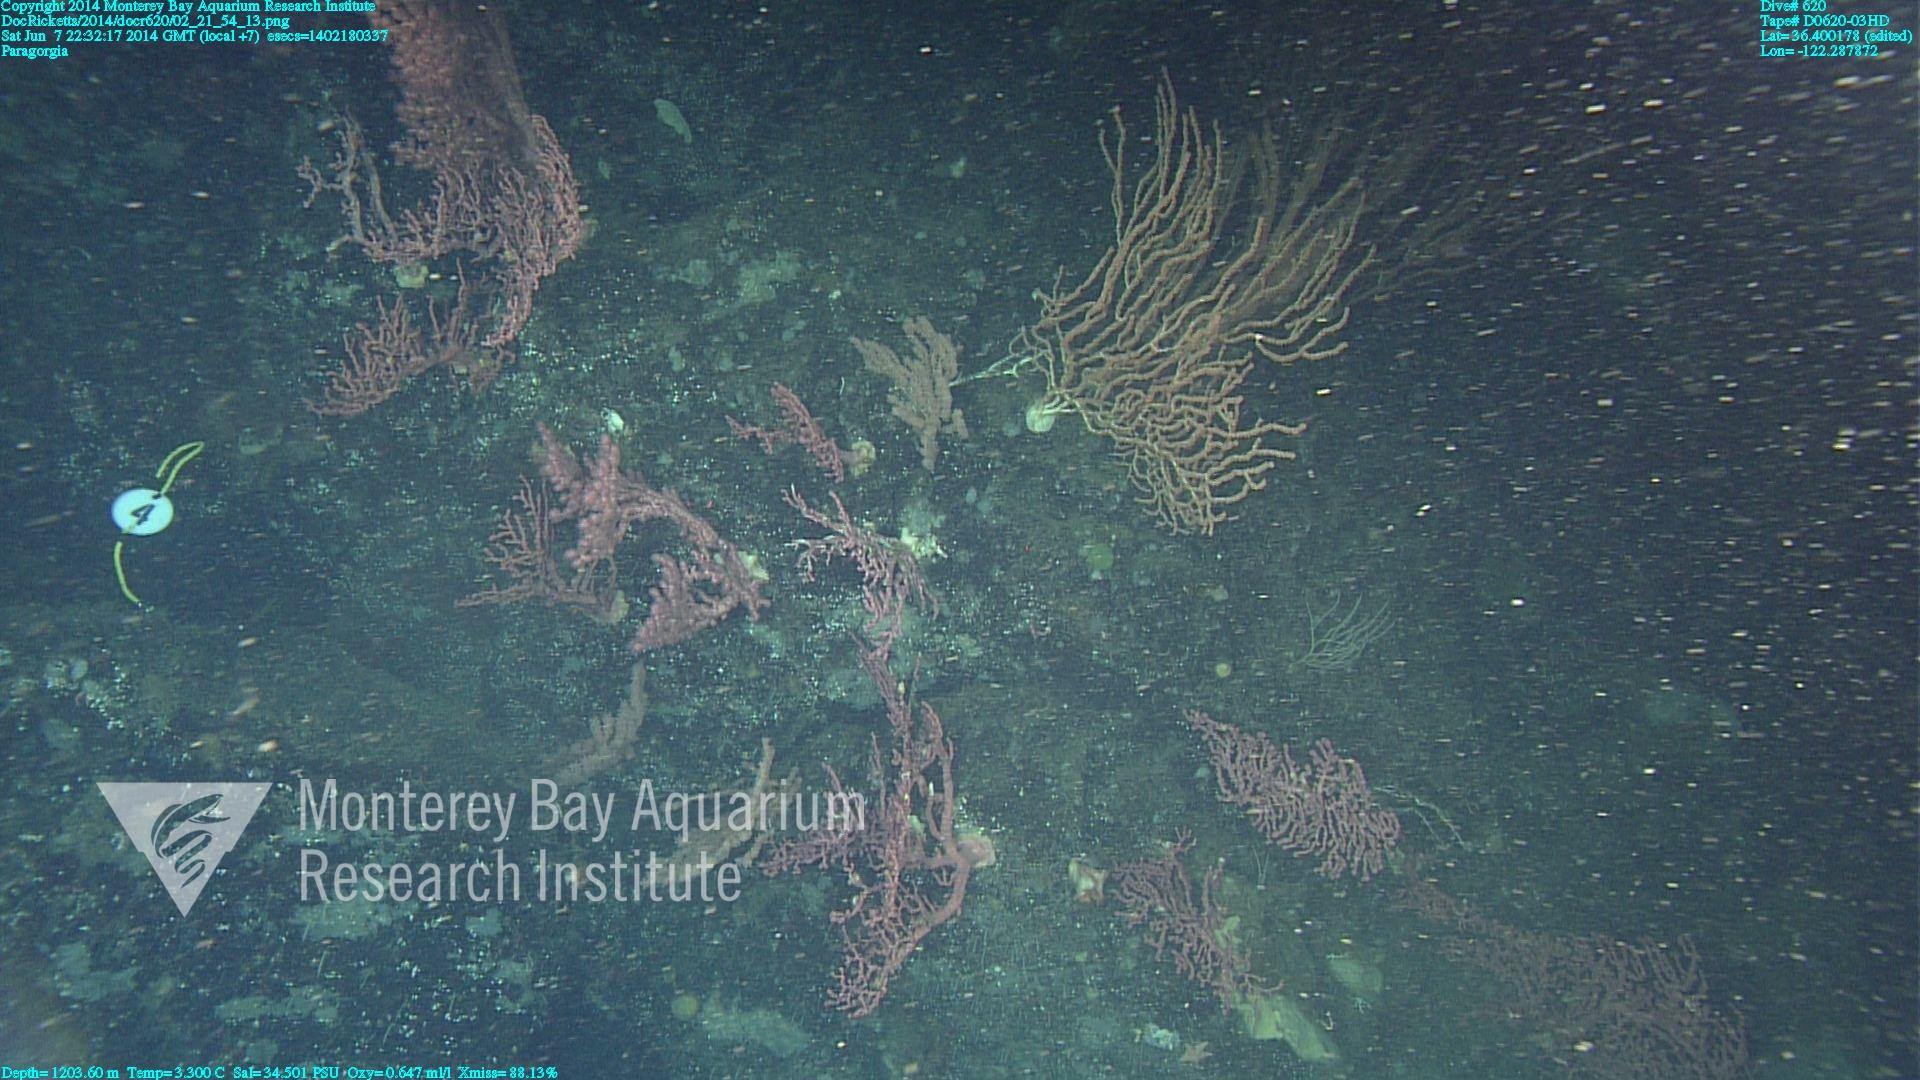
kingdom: Animalia
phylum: Cnidaria
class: Anthozoa
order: Scleralcyonacea
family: Coralliidae
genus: Paragorgia
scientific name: Paragorgia arborea
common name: Bubble gum coral
